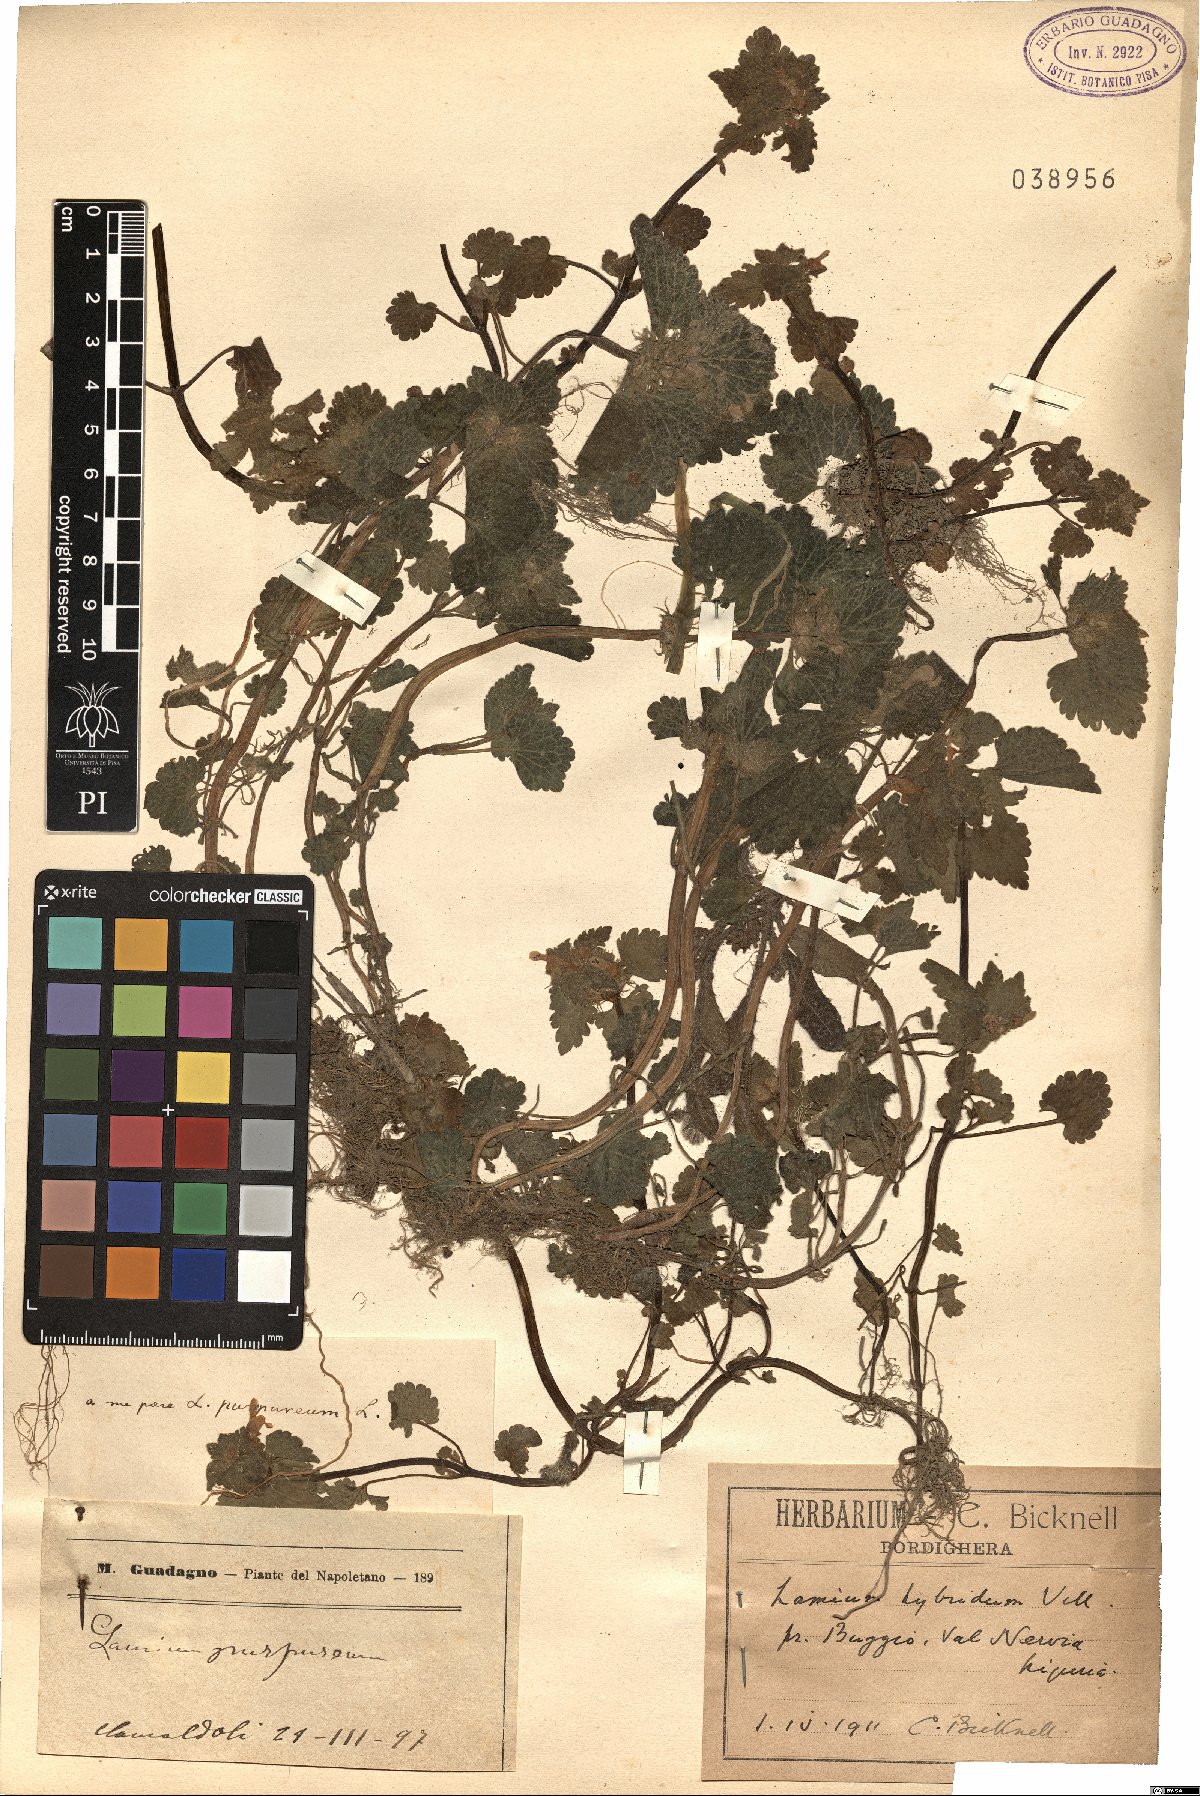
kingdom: Plantae
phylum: Tracheophyta
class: Magnoliopsida
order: Lamiales
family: Lamiaceae
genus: Lamium
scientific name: Lamium hybridum
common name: Cut-leaved dead-nettle
